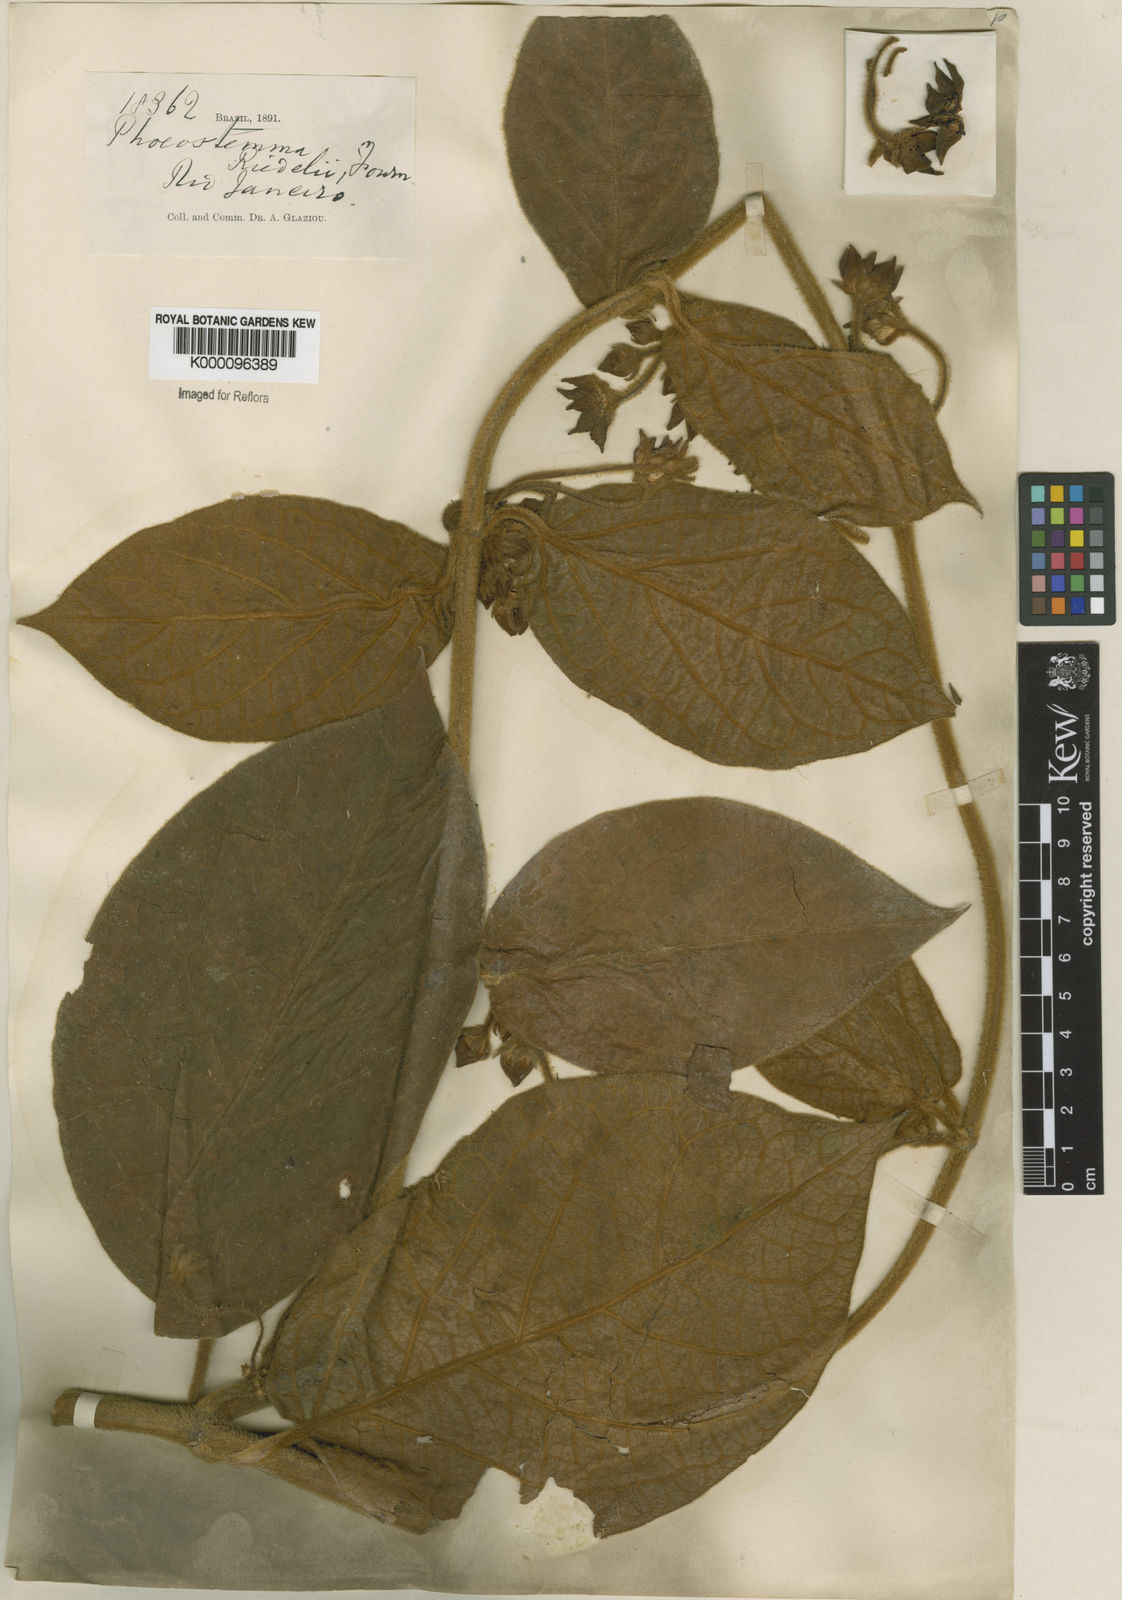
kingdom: Plantae
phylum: Tracheophyta
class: Magnoliopsida
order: Gentianales
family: Apocynaceae
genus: Matelea
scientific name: Matelea
